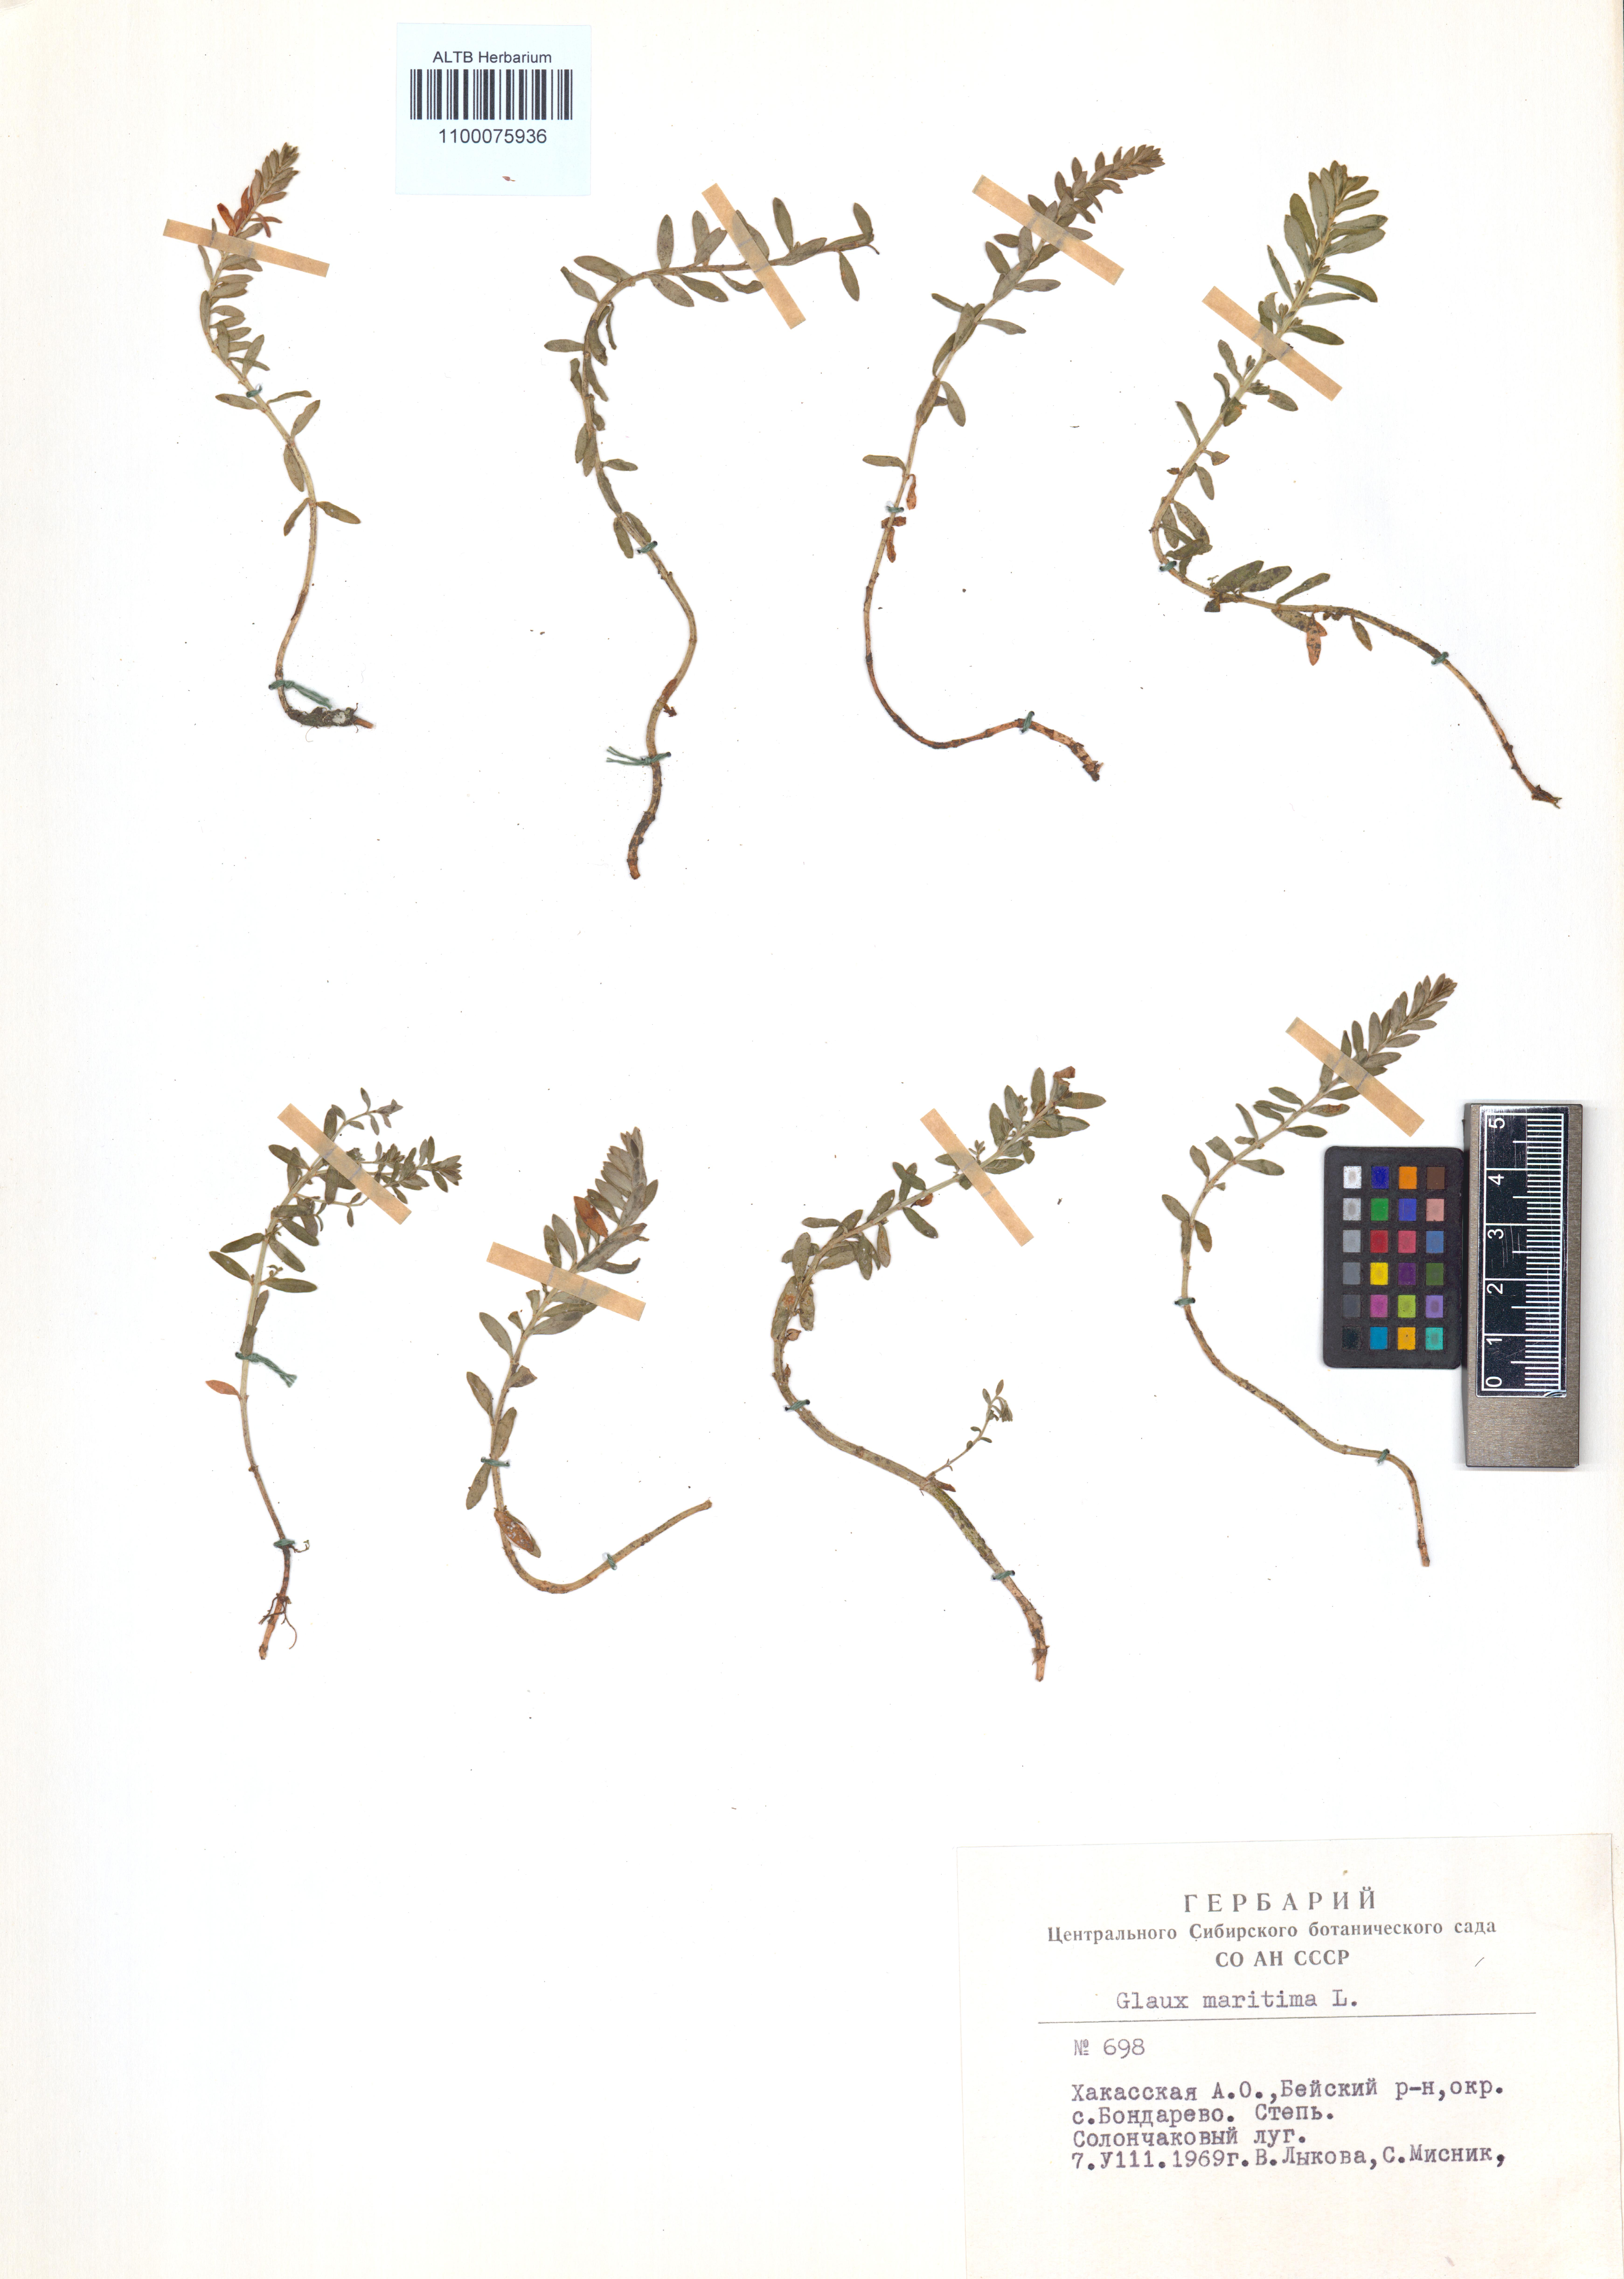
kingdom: Plantae
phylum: Tracheophyta
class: Magnoliopsida
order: Ericales
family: Primulaceae
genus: Lysimachia
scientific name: Lysimachia maritima
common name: Sea milkwort
